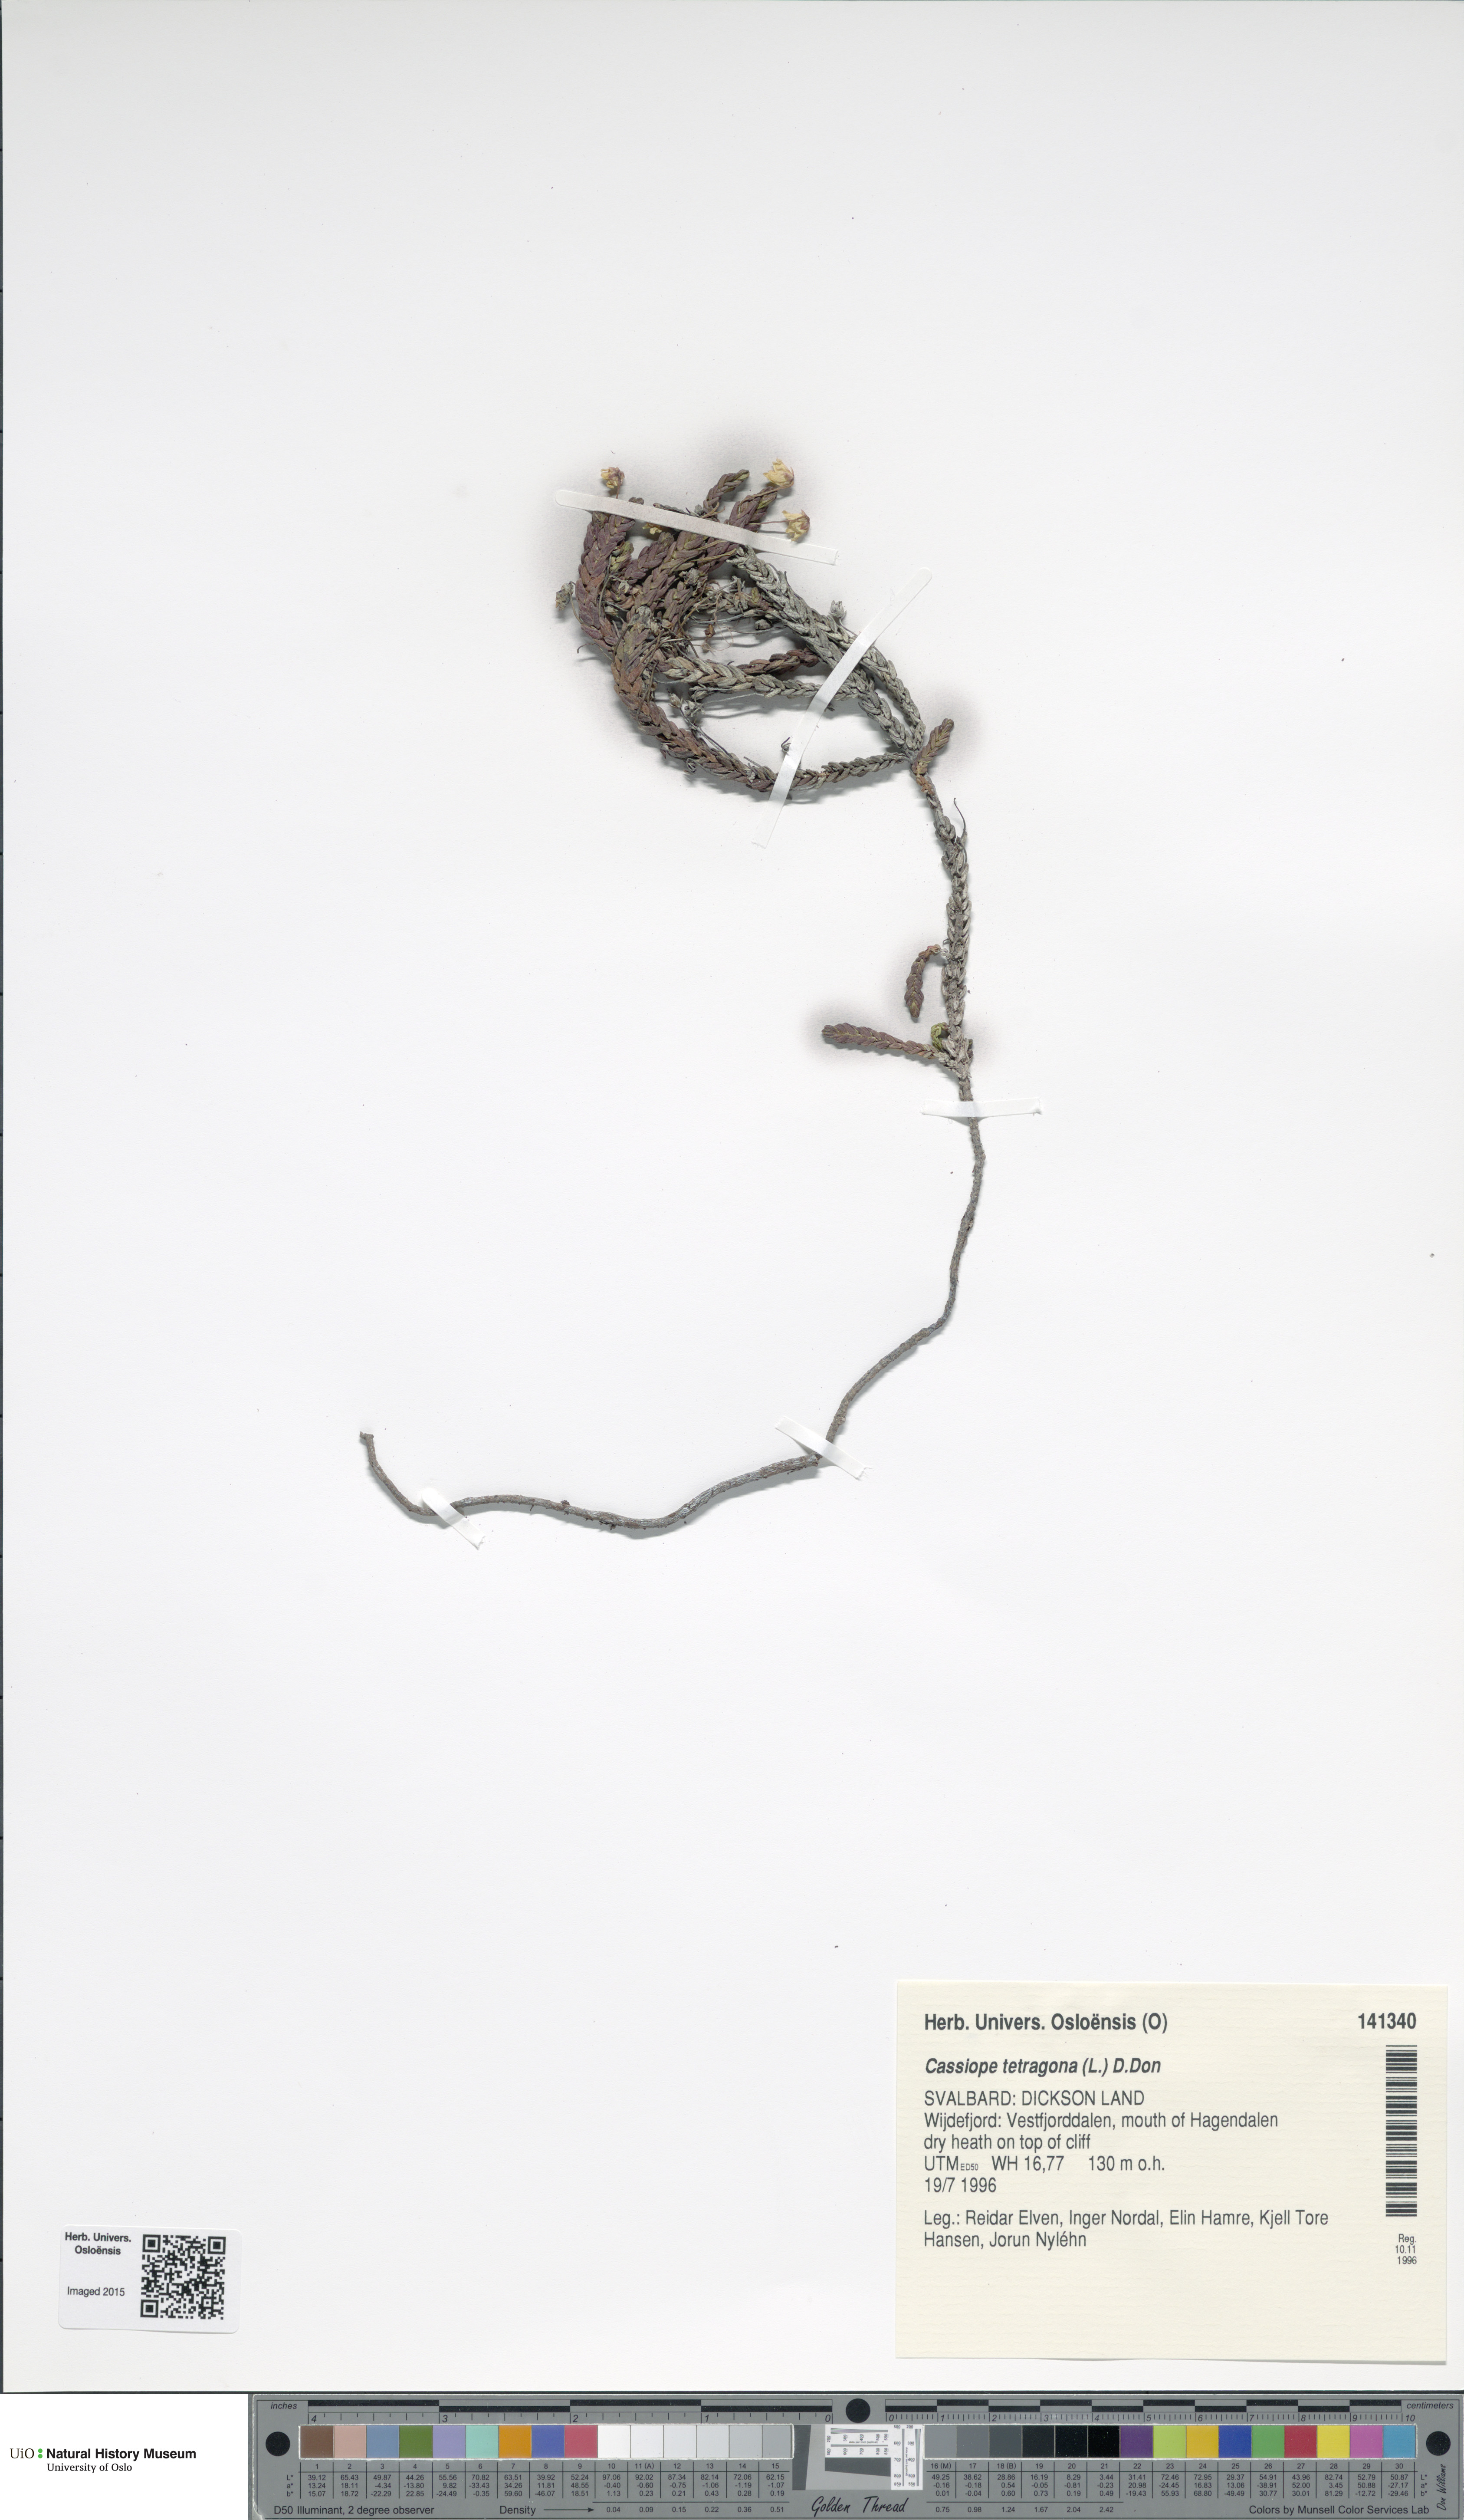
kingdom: Plantae
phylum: Tracheophyta
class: Magnoliopsida
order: Ericales
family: Ericaceae
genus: Cassiope
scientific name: Cassiope tetragona
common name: Arctic bell heather
